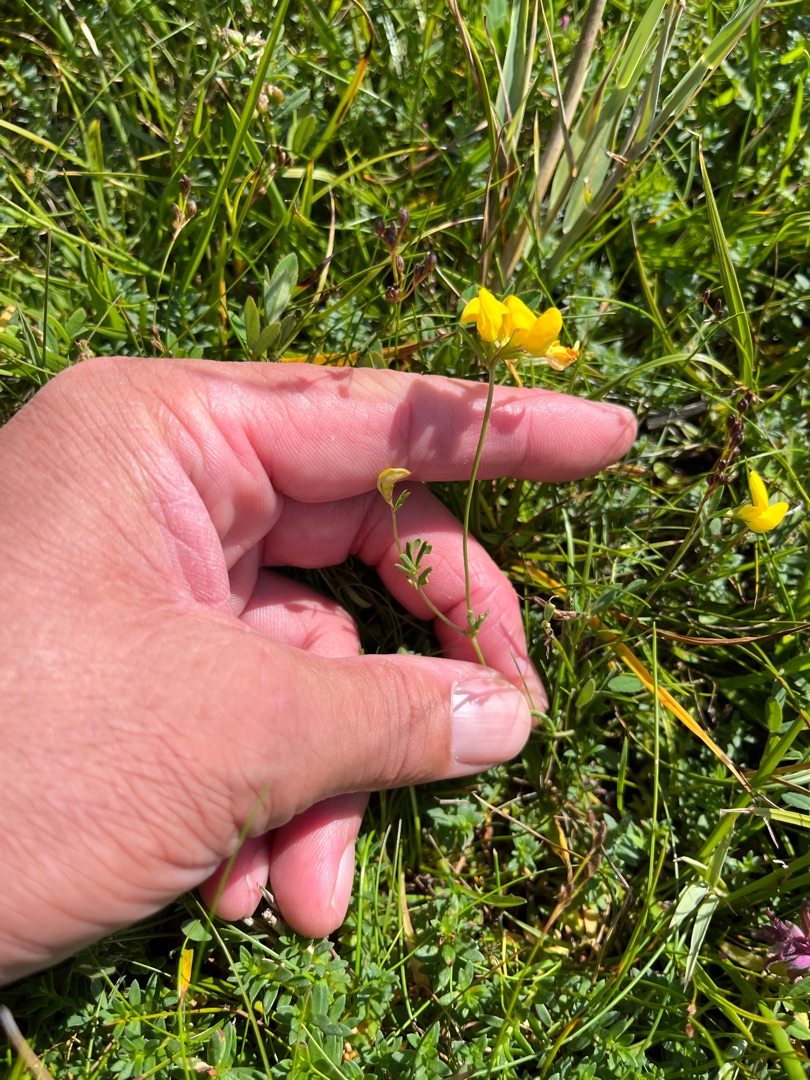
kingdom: Plantae
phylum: Tracheophyta
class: Magnoliopsida
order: Fabales
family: Fabaceae
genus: Lotus
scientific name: Lotus tenuis
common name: Smalbladet kællingetand
